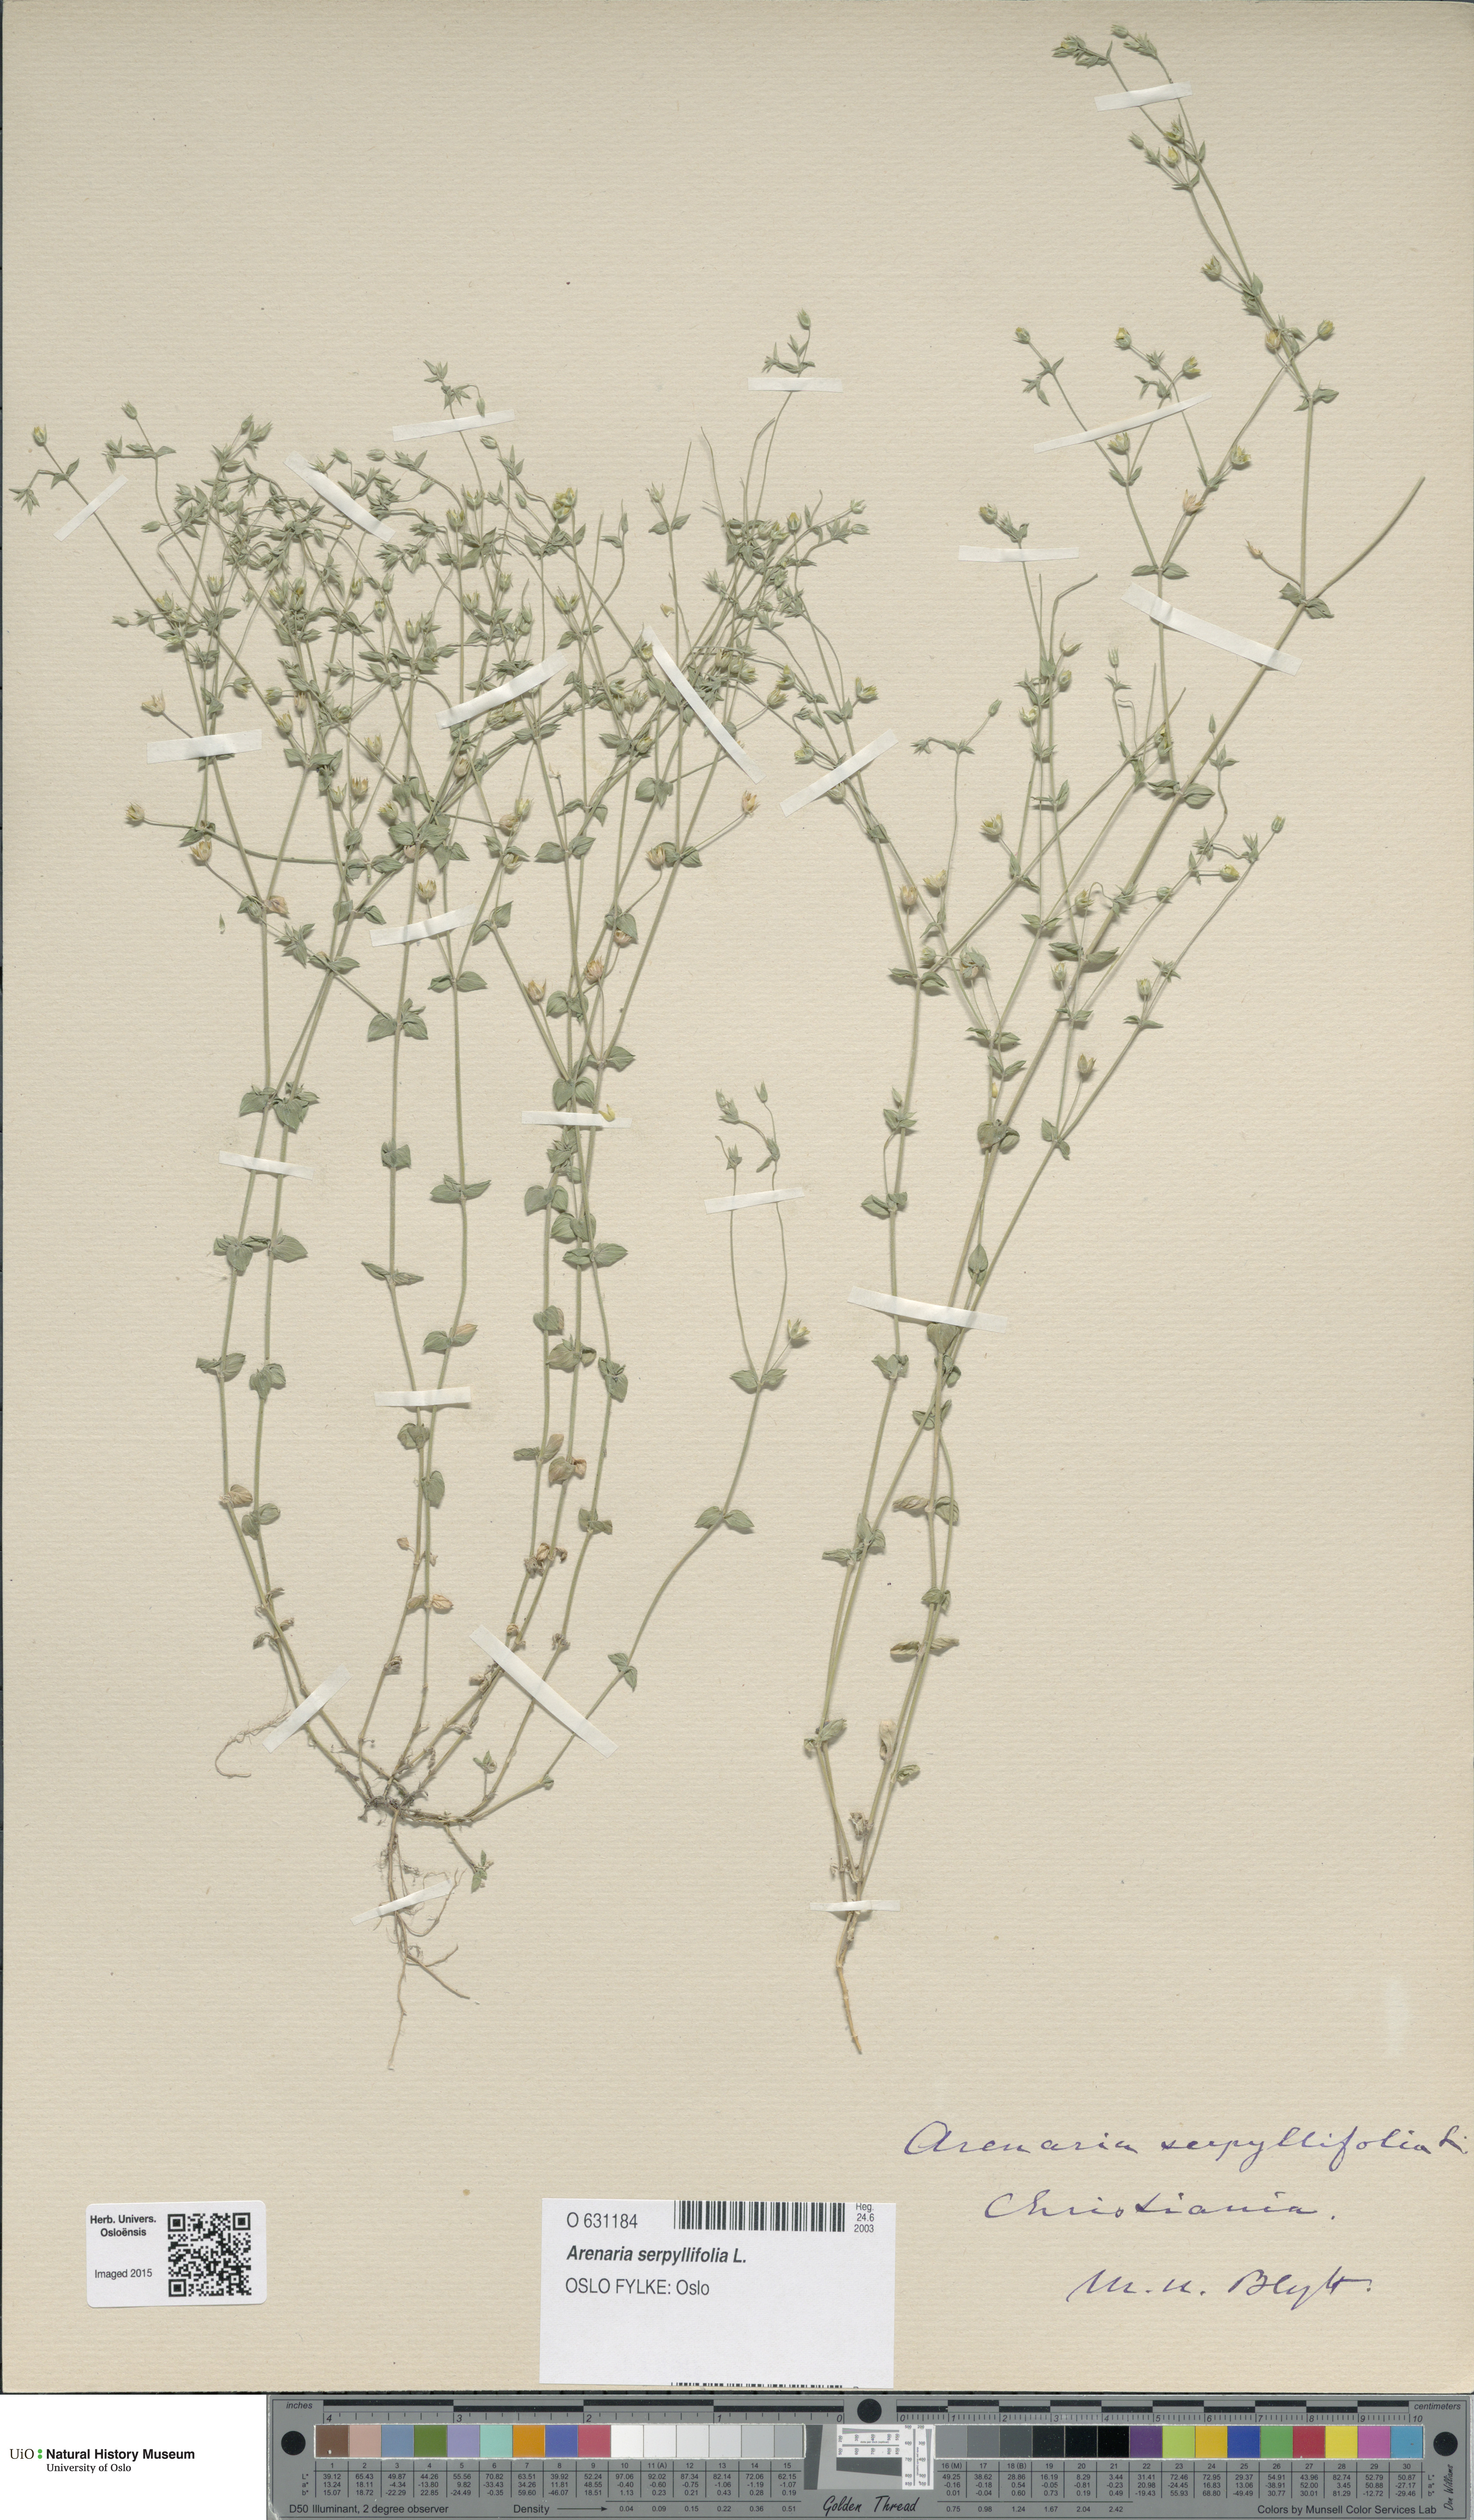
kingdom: Plantae
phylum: Tracheophyta
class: Magnoliopsida
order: Caryophyllales
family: Caryophyllaceae
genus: Arenaria
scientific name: Arenaria serpyllifolia
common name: Thyme-leaved sandwort
